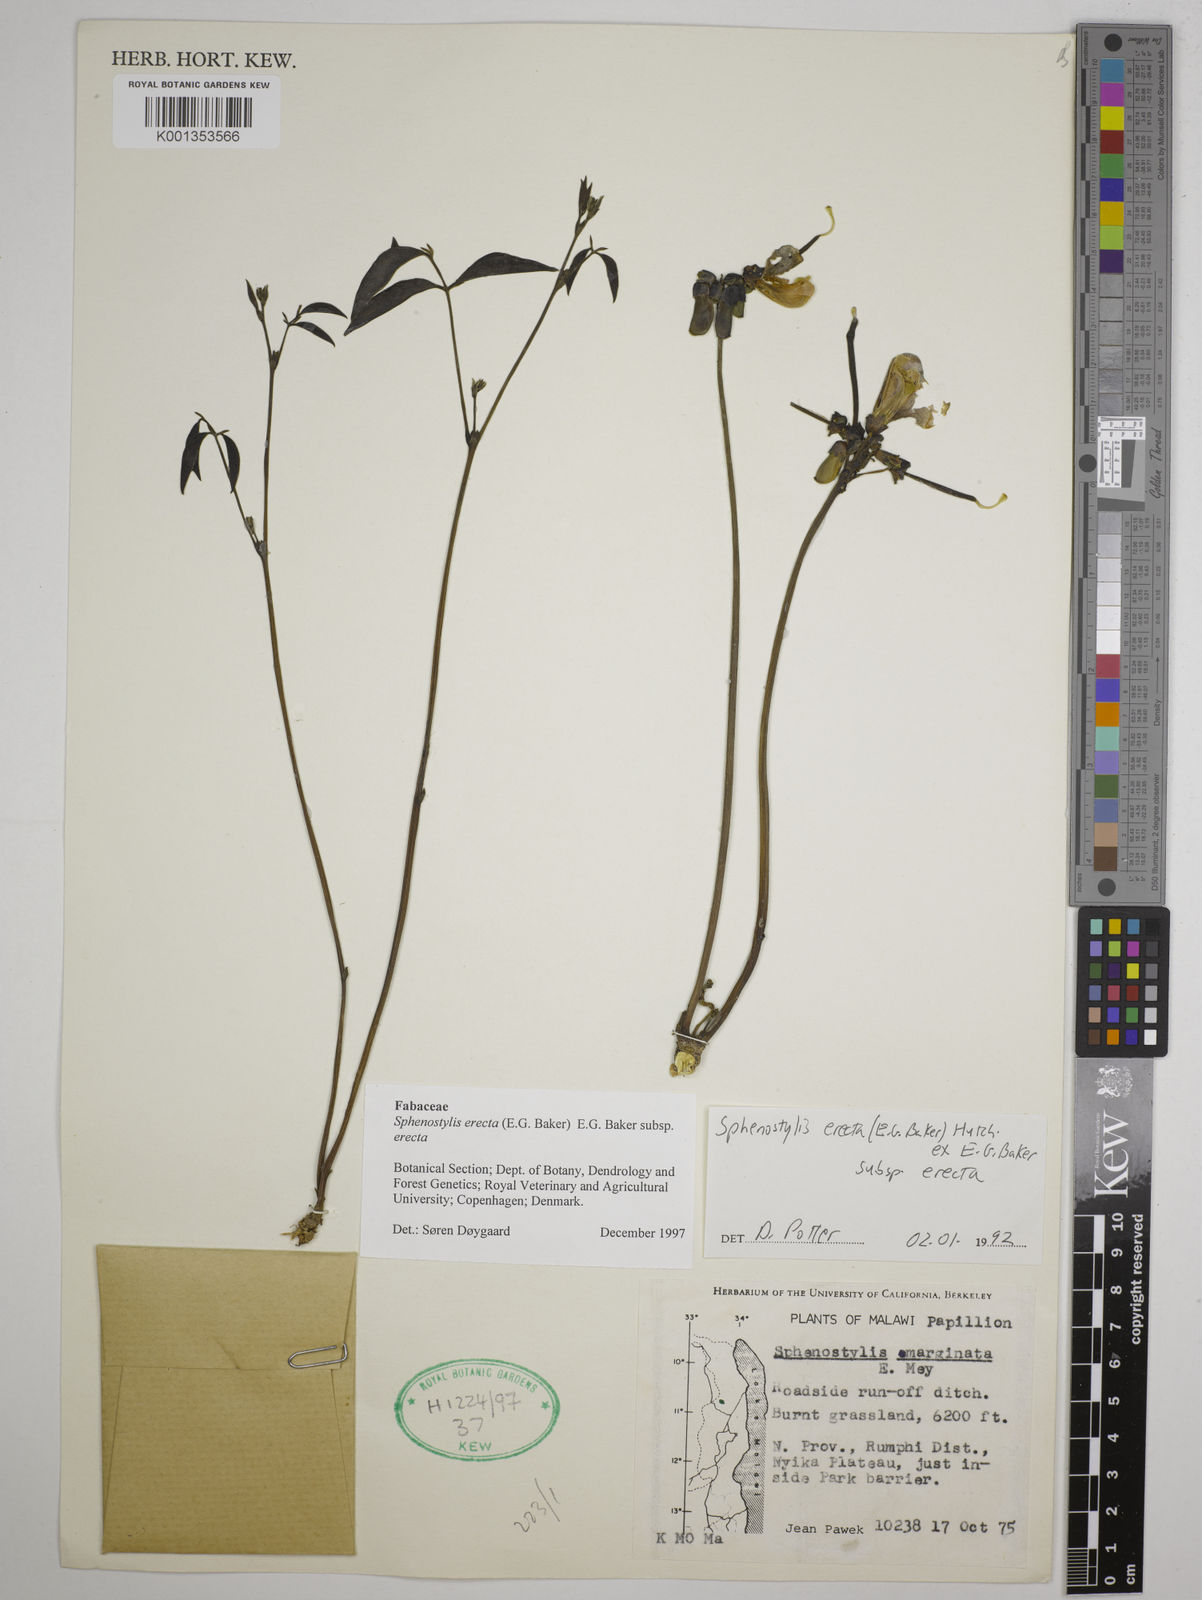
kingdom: Plantae
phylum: Tracheophyta
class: Magnoliopsida
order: Fabales
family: Fabaceae
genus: Sphenostylis
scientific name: Sphenostylis erecta
